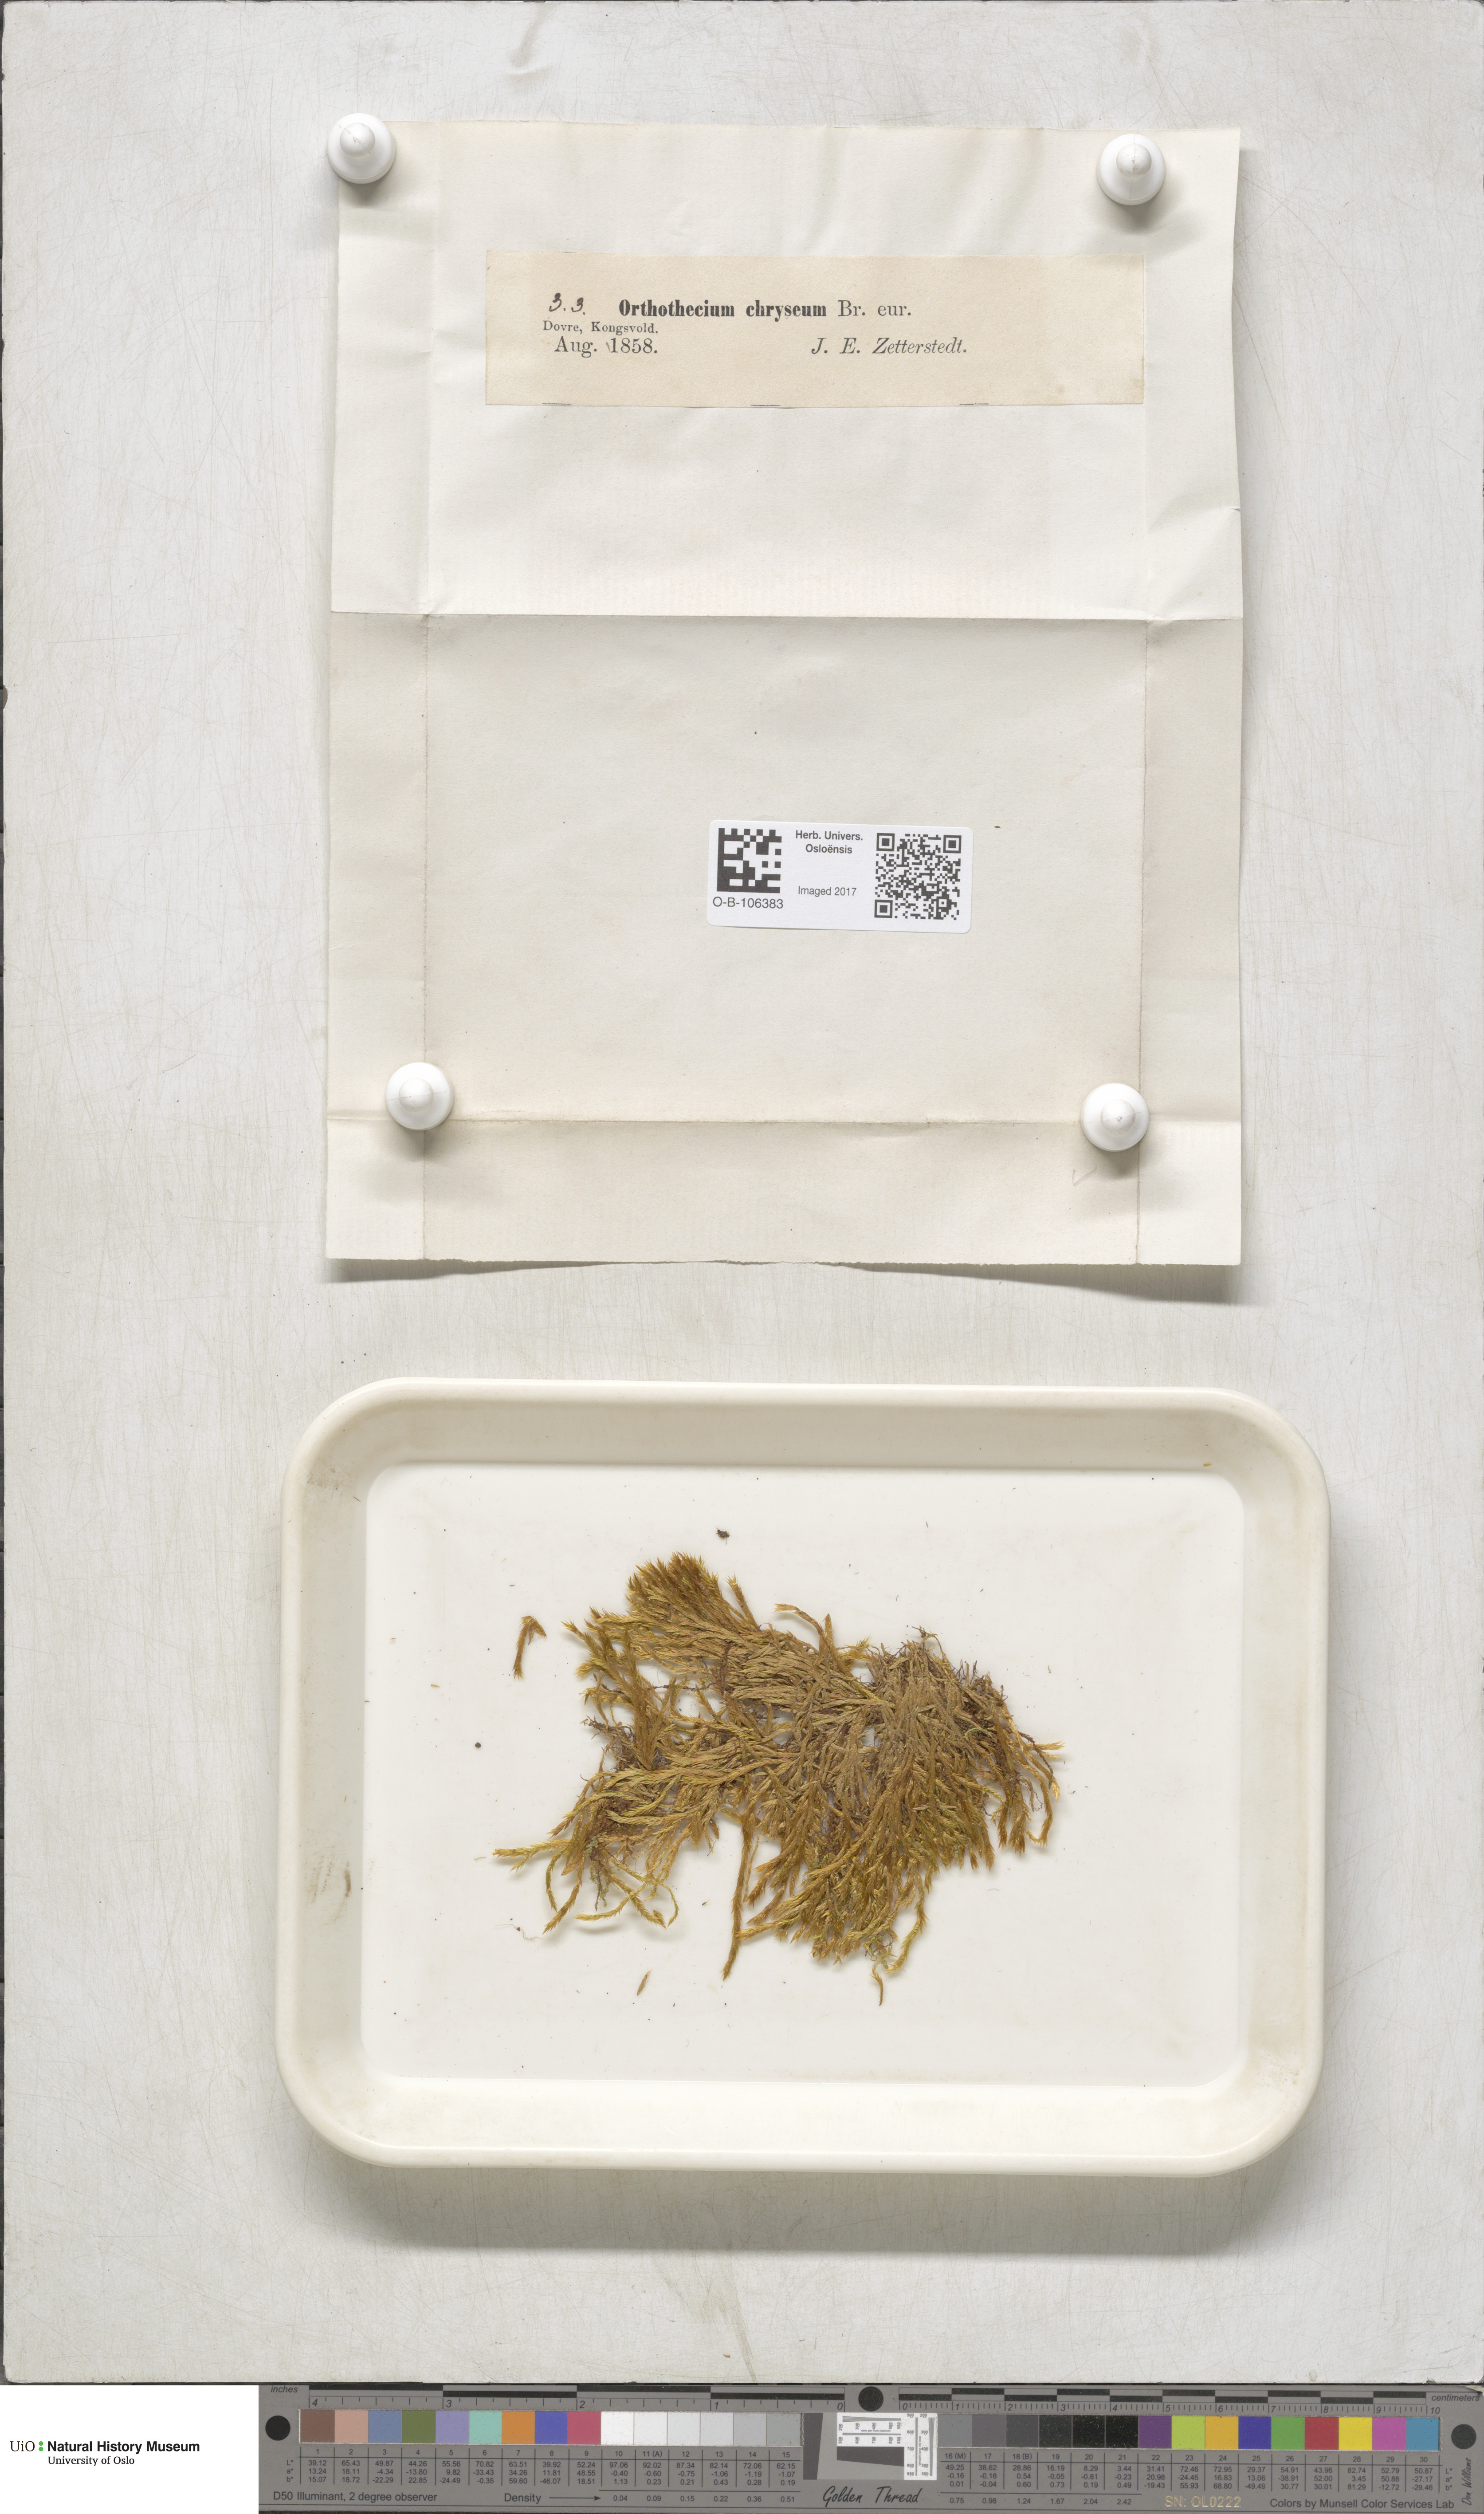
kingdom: Plantae
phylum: Bryophyta
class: Bryopsida
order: Hypnales
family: Plagiotheciaceae
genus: Orthothecium
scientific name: Orthothecium chryseon
